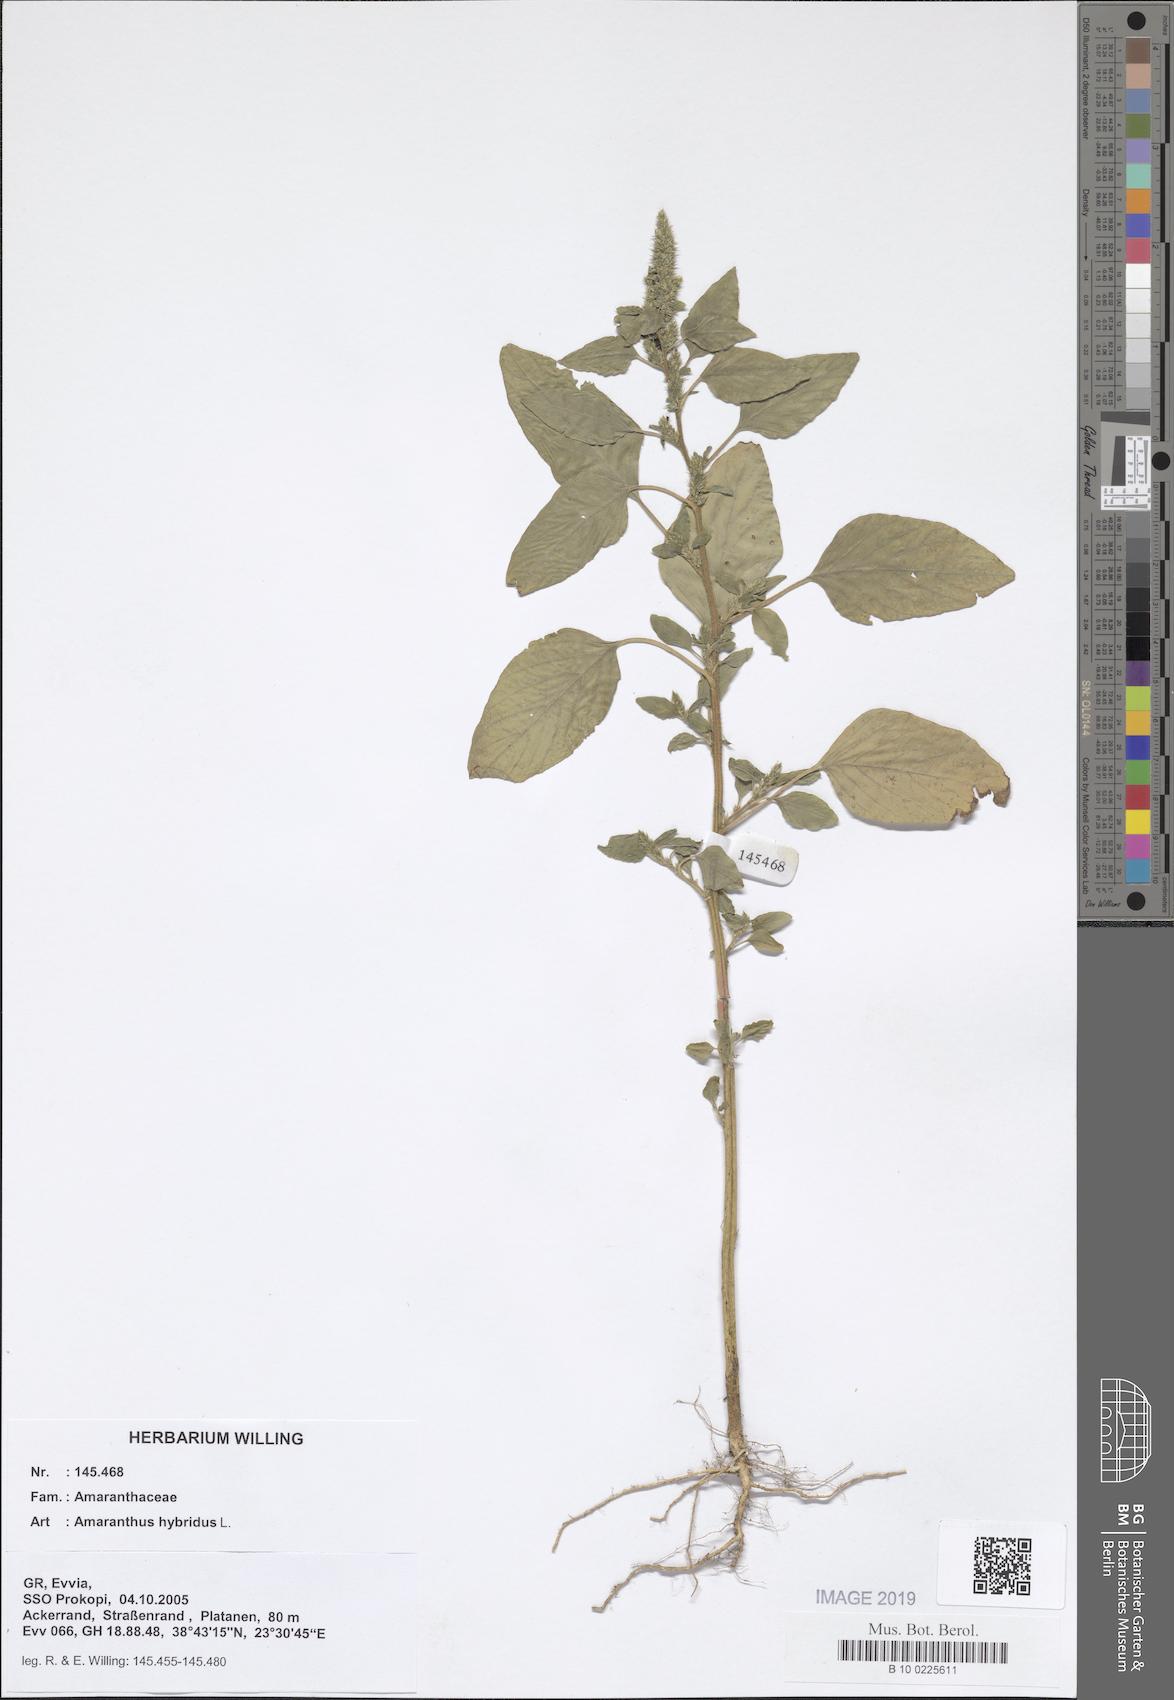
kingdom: Plantae
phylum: Tracheophyta
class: Magnoliopsida
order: Caryophyllales
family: Amaranthaceae
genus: Amaranthus
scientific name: Amaranthus hybridus
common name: Green amaranth
